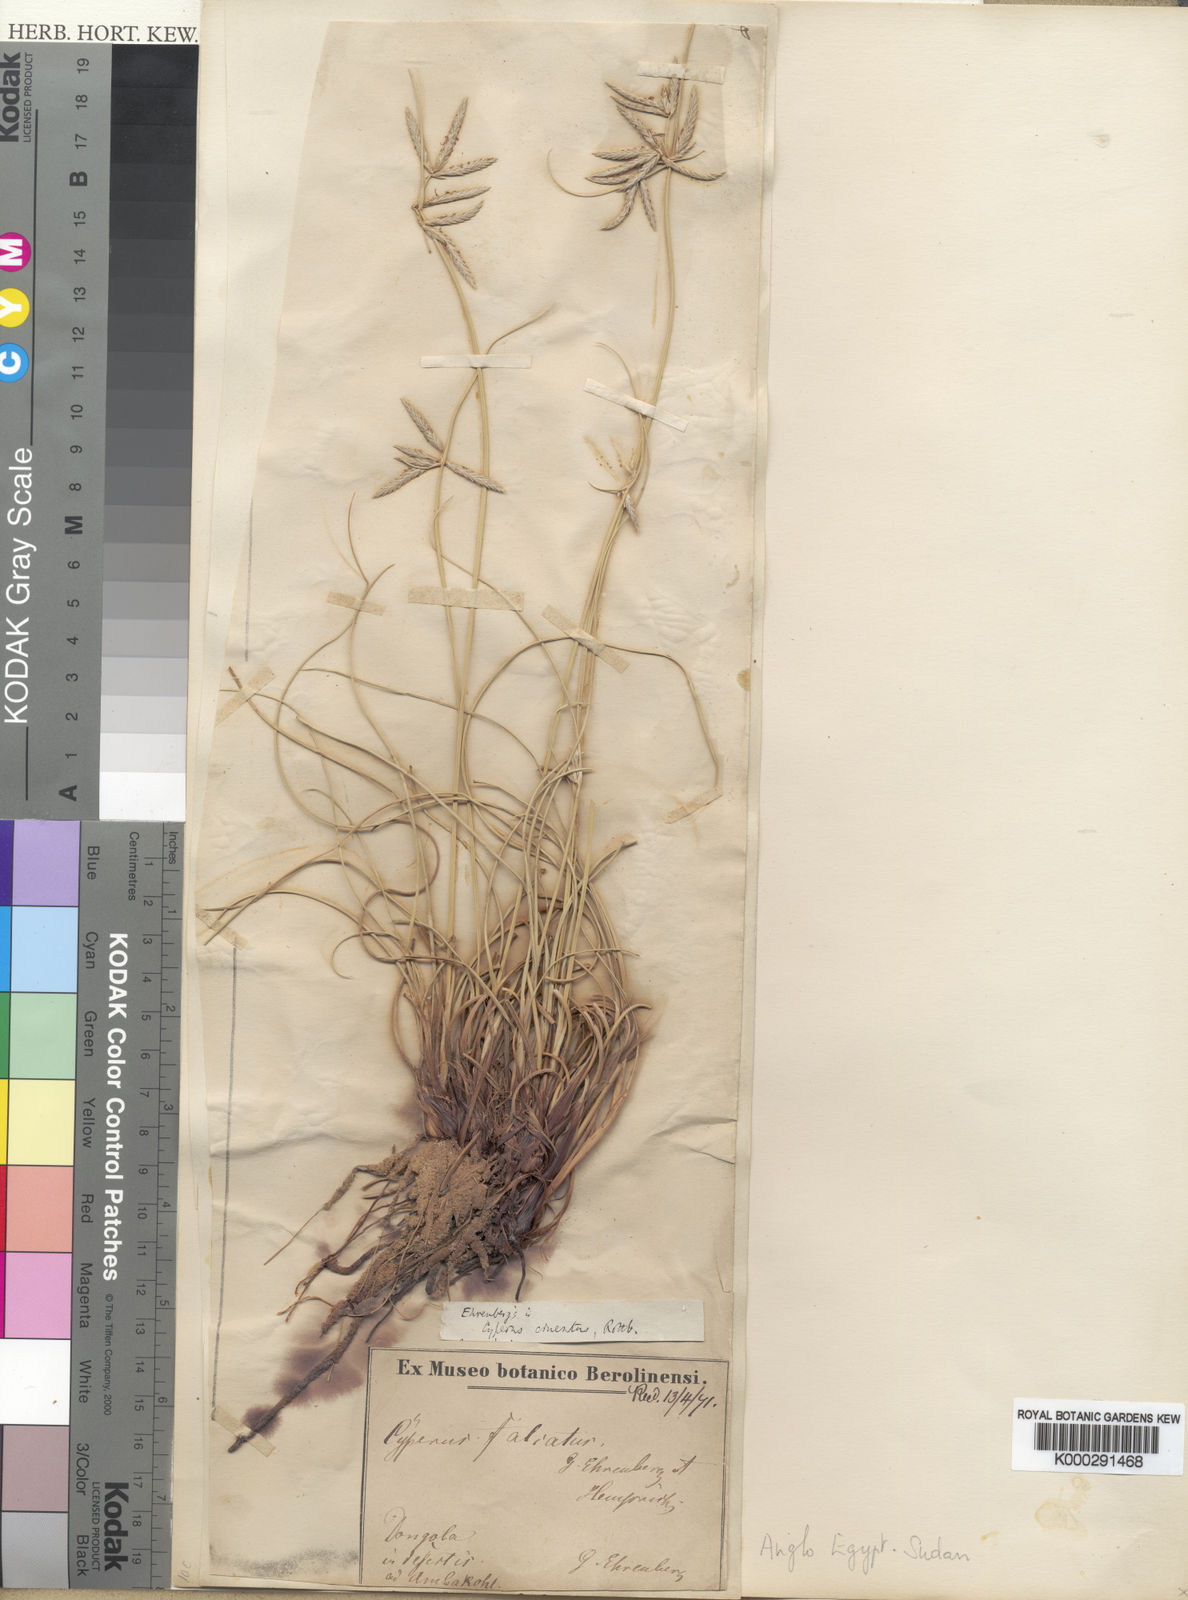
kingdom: Plantae
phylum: Tracheophyta
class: Liliopsida
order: Poales
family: Cyperaceae
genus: Cyperus
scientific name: Cyperus conglomeratus
